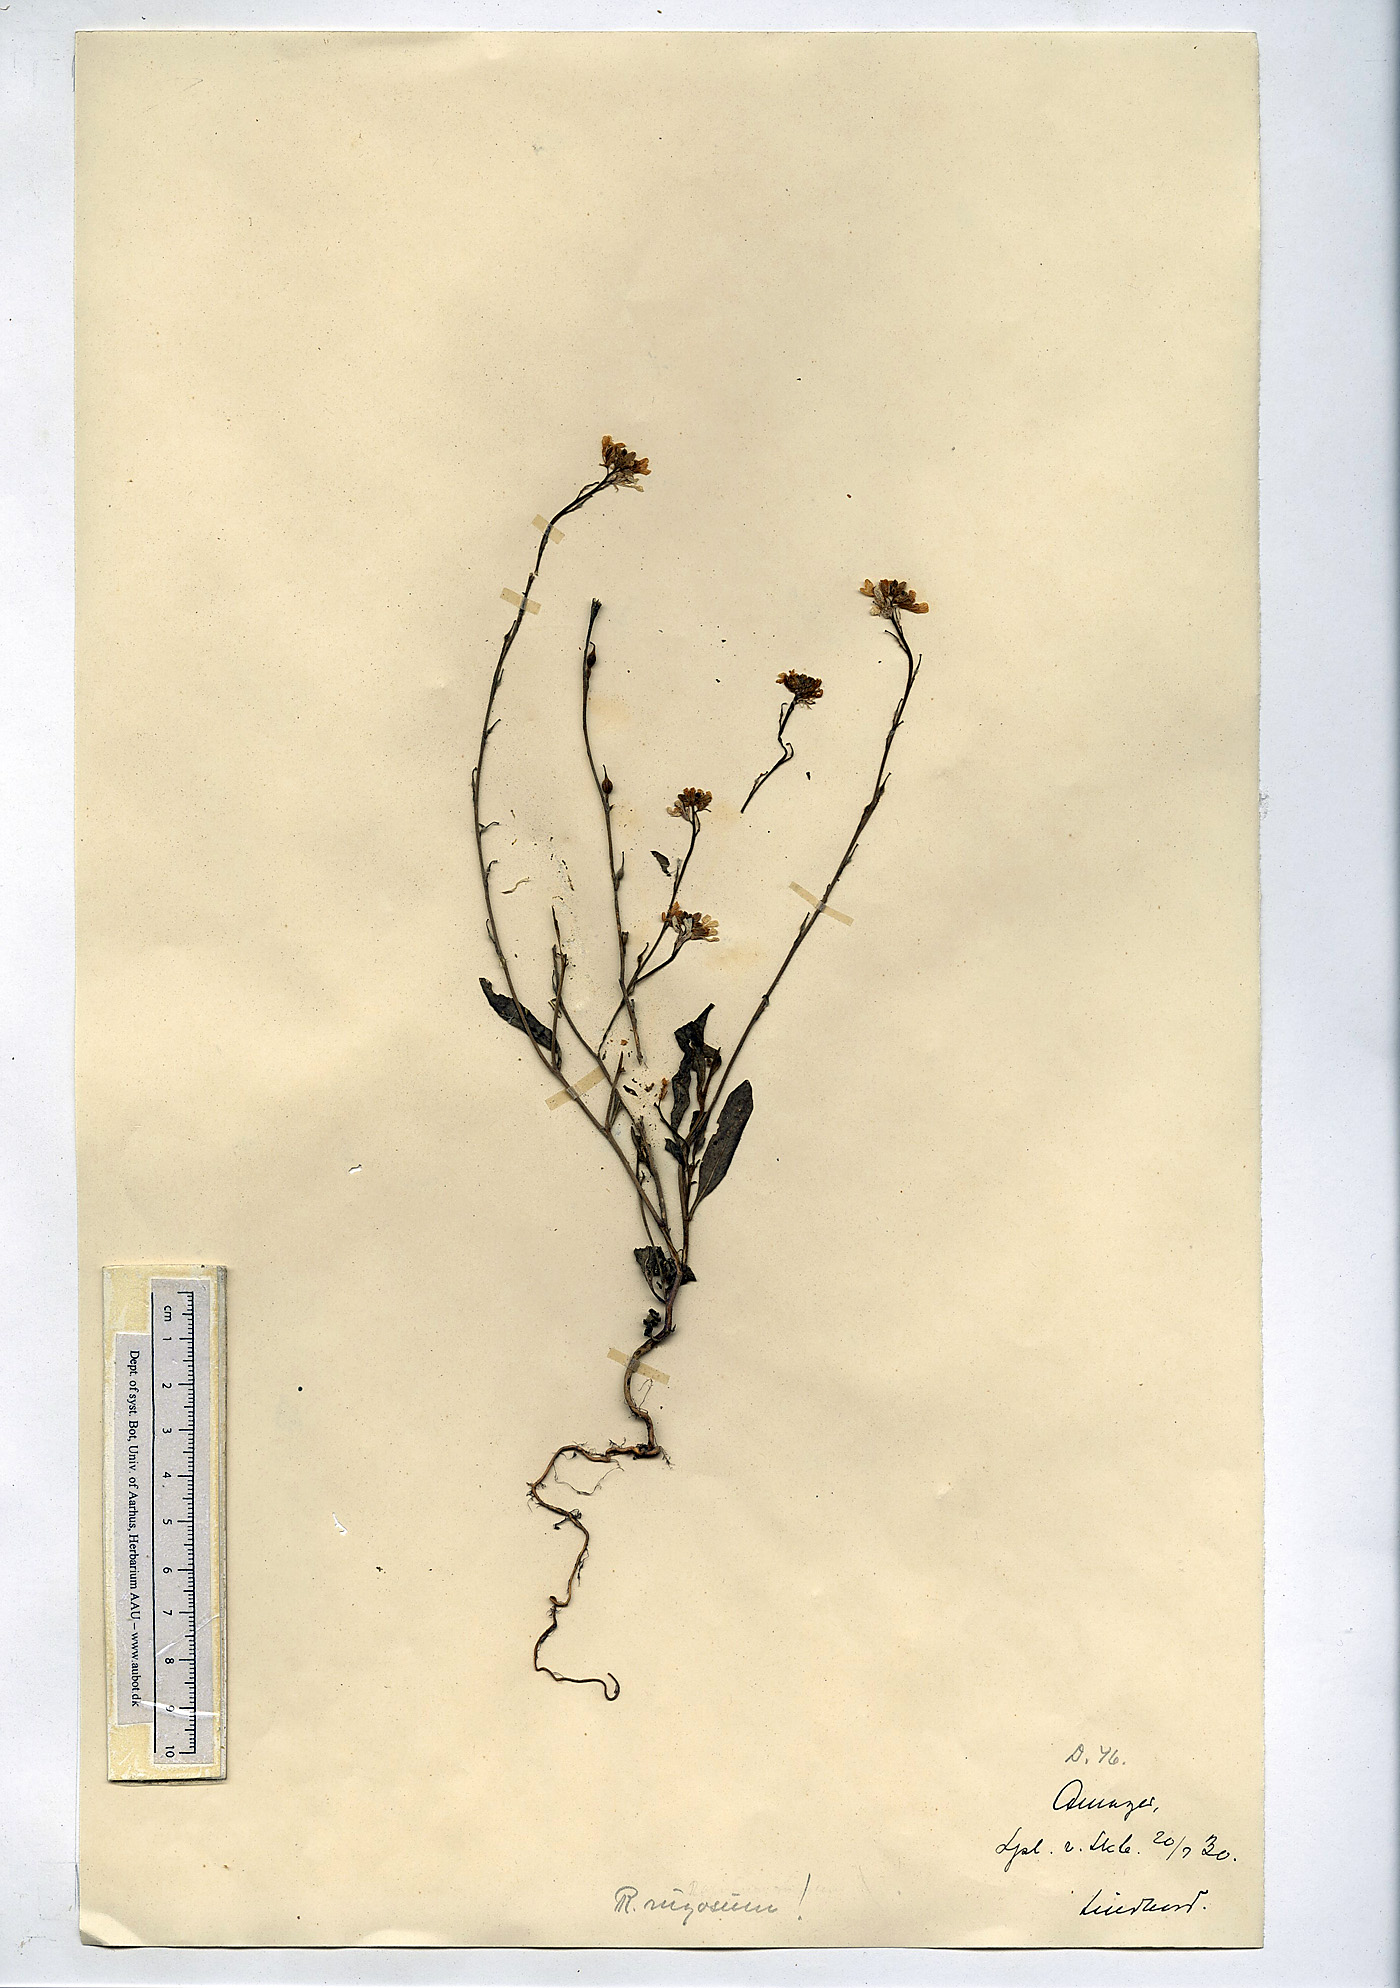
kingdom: Plantae
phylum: Tracheophyta
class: Magnoliopsida
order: Brassicales
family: Brassicaceae
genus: Rapistrum
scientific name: Rapistrum rugosum
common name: Annual bastardcabbage
